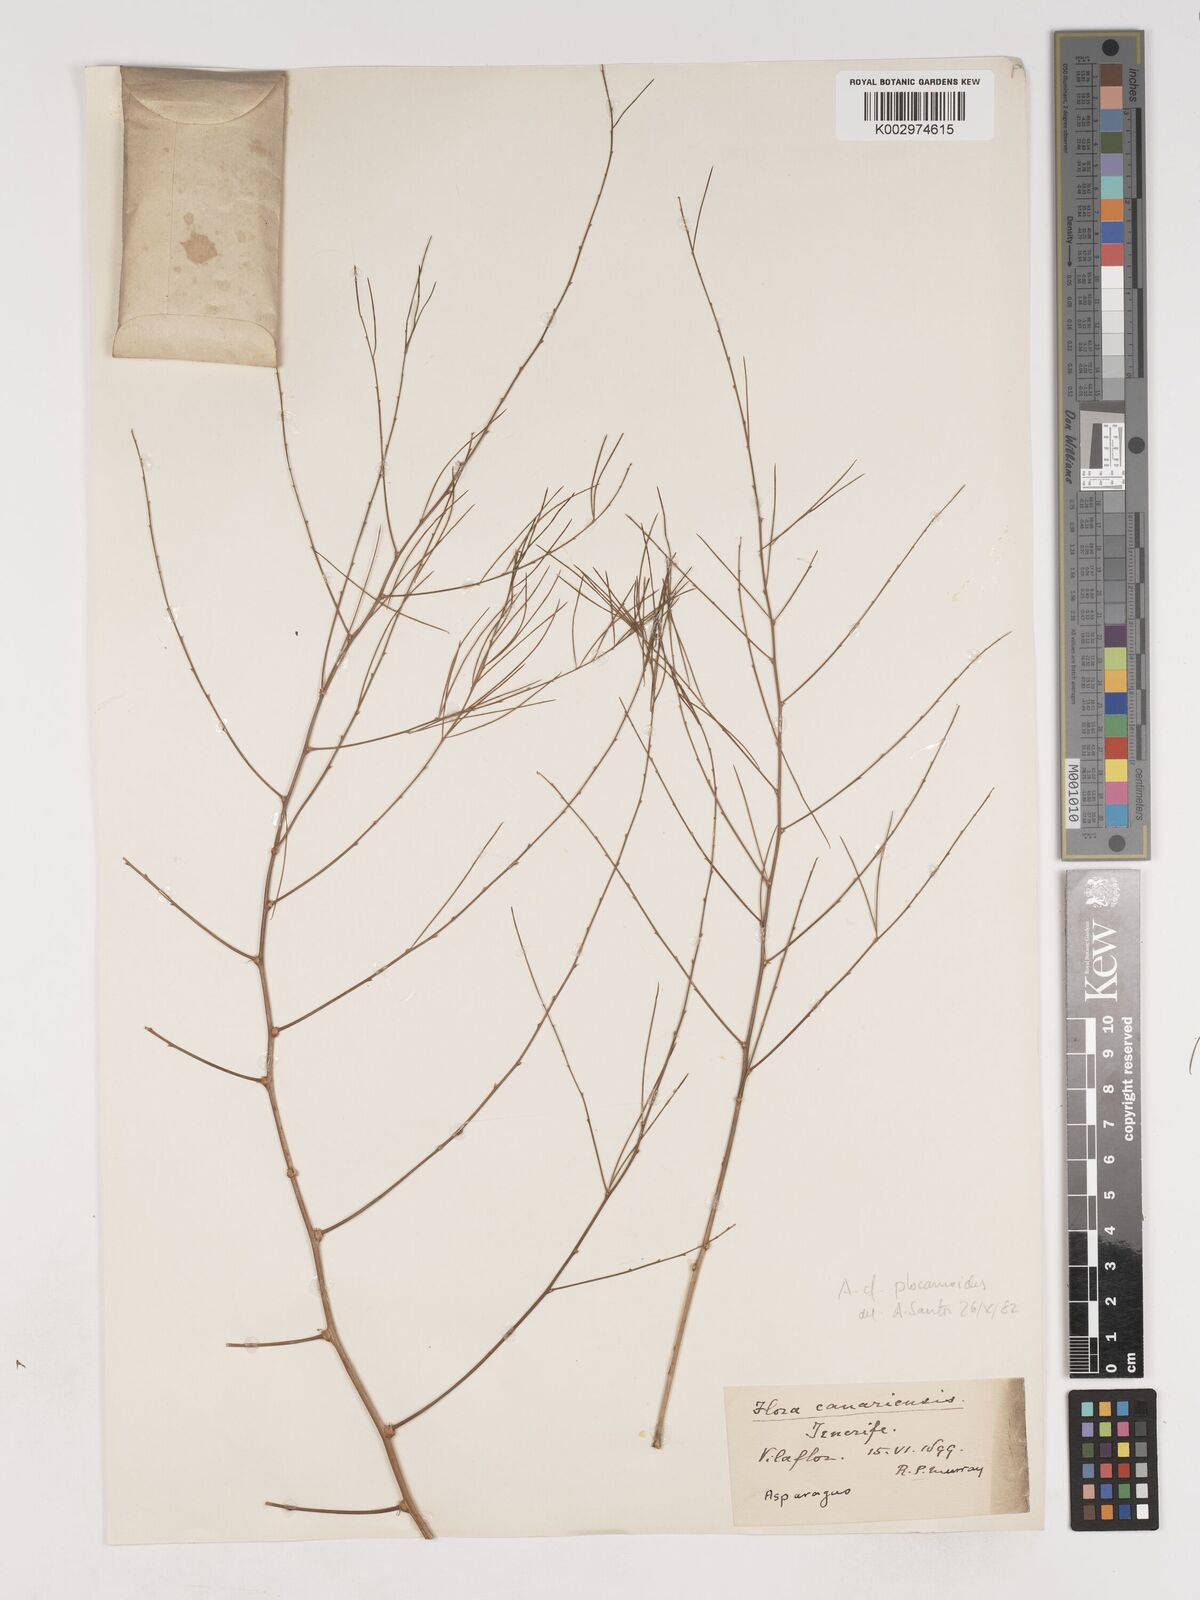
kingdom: Plantae
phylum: Tracheophyta
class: Liliopsida
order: Asparagales
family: Asparagaceae
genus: Asparagus
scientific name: Asparagus
